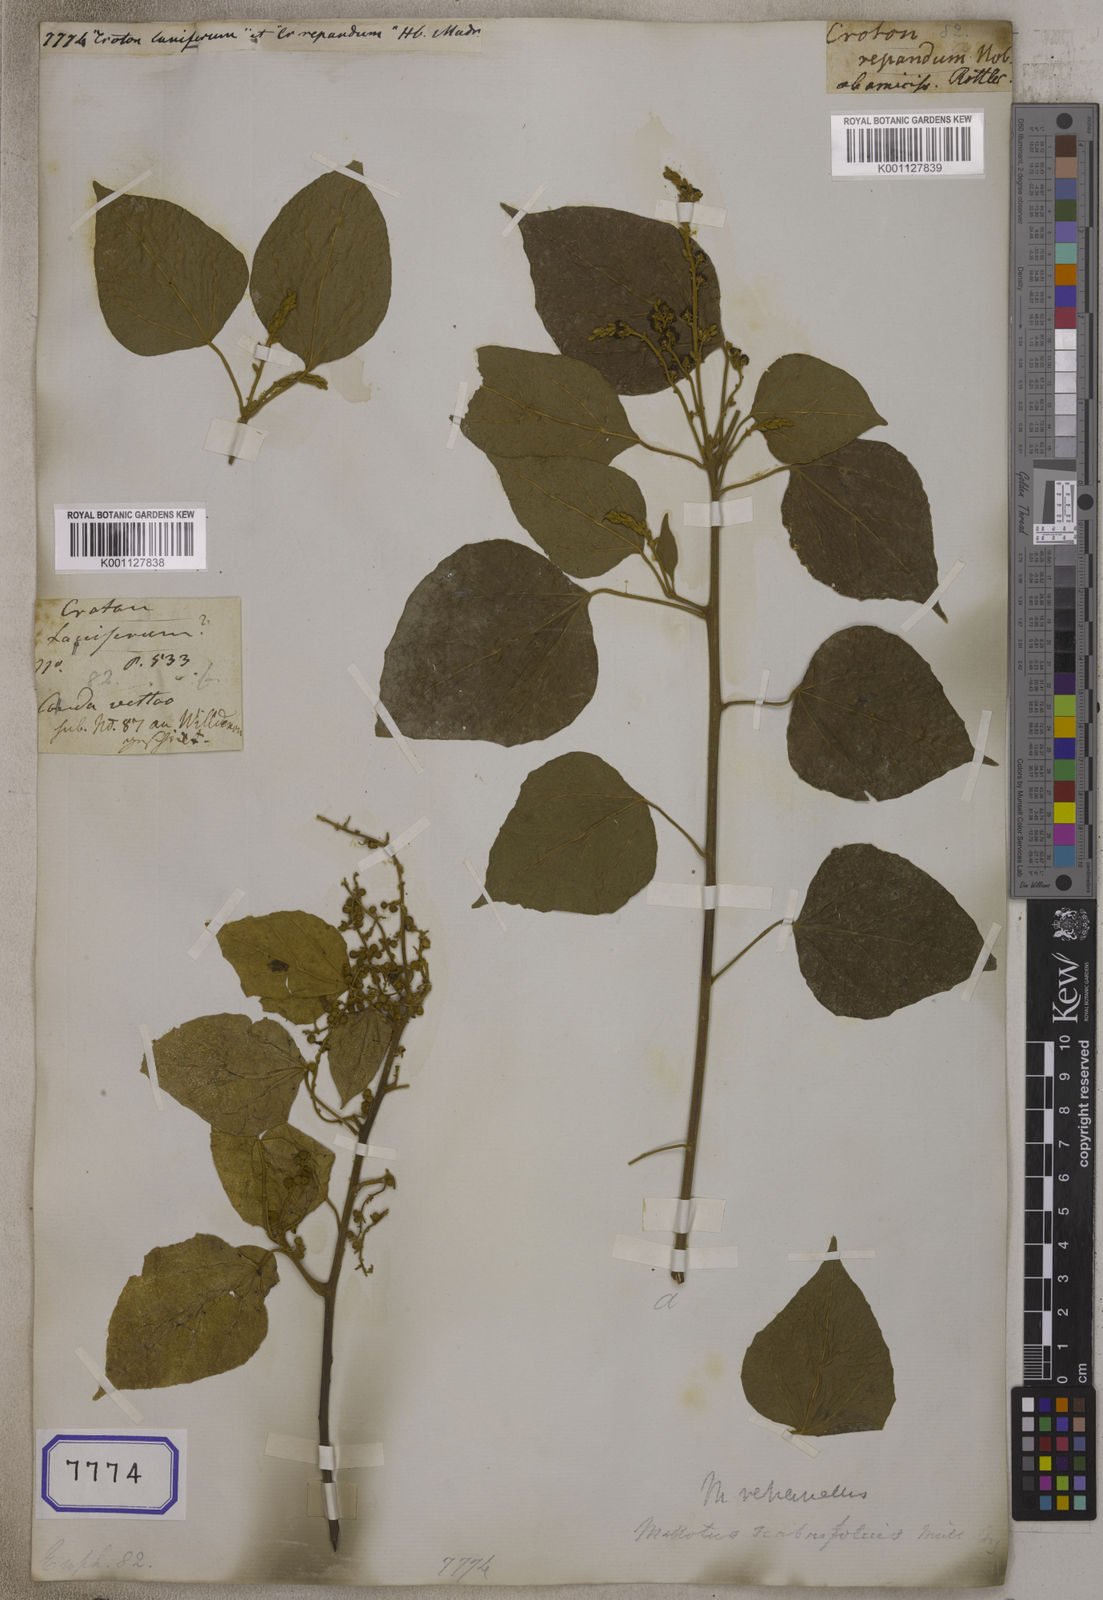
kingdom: Plantae
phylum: Tracheophyta
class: Magnoliopsida
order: Malpighiales
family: Euphorbiaceae
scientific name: Euphorbiaceae
